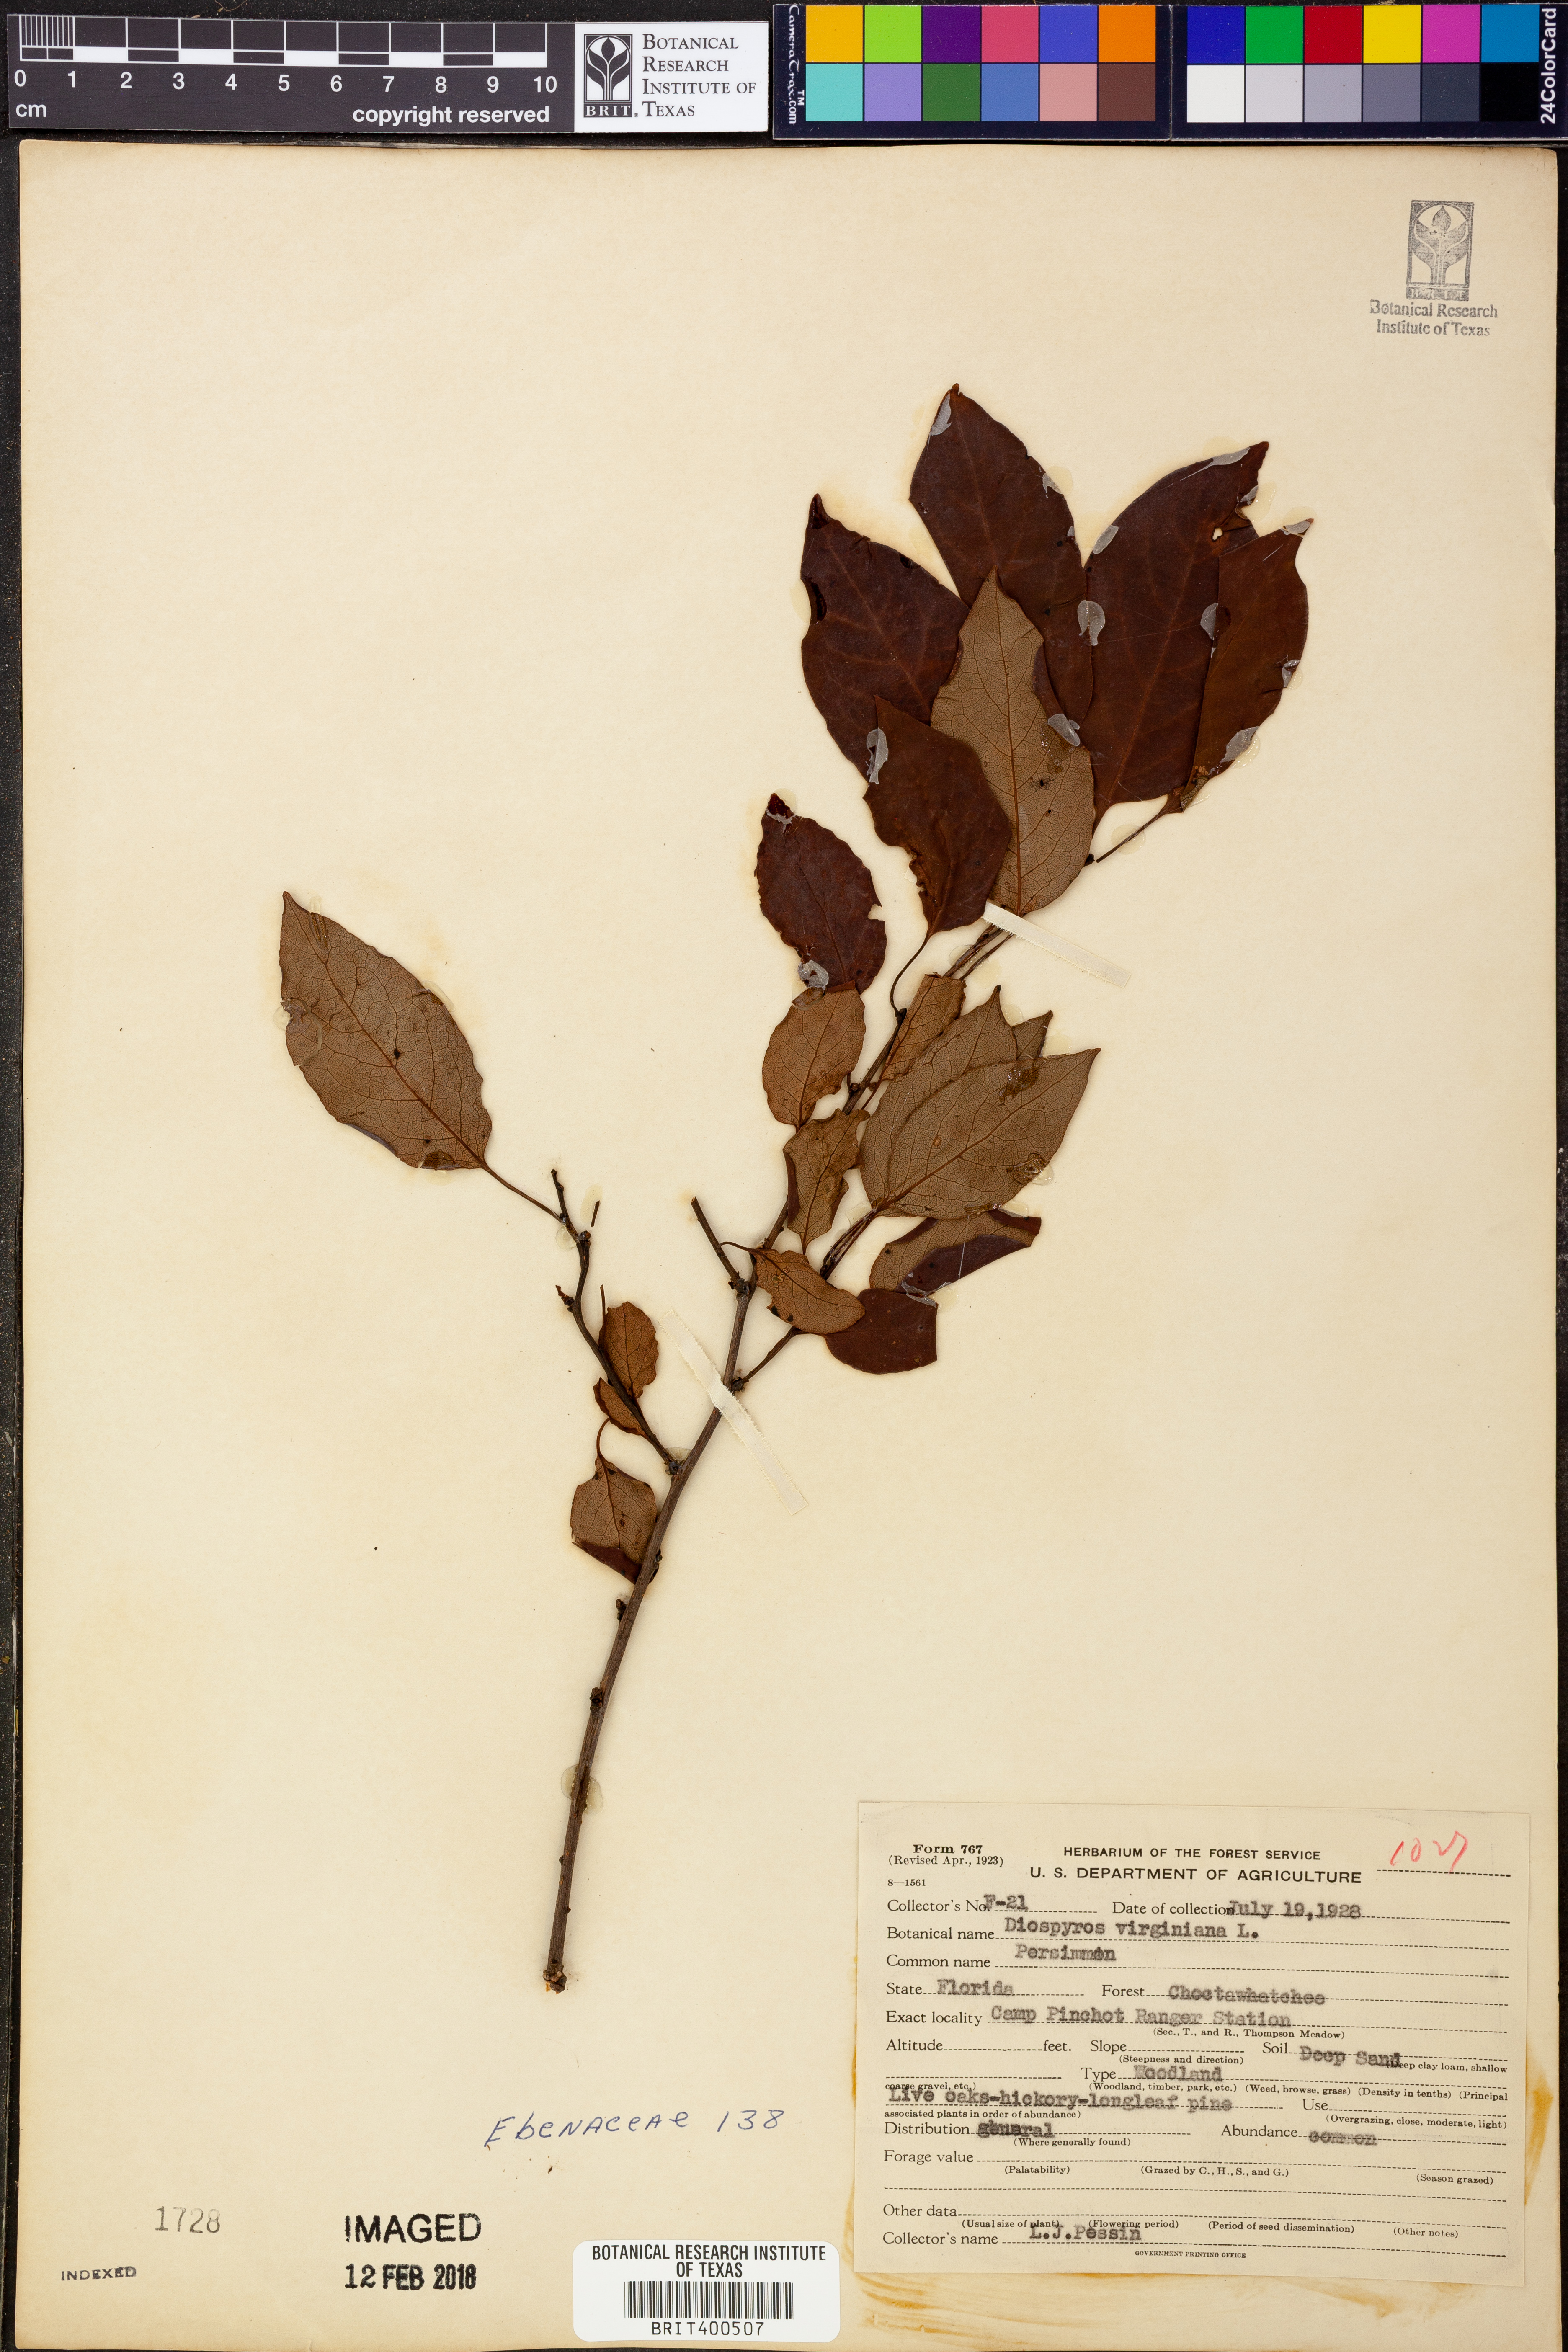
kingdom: Plantae
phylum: Tracheophyta
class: Magnoliopsida
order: Ericales
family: Ebenaceae
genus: Diospyros
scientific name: Diospyros virginiana
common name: Persimmon
